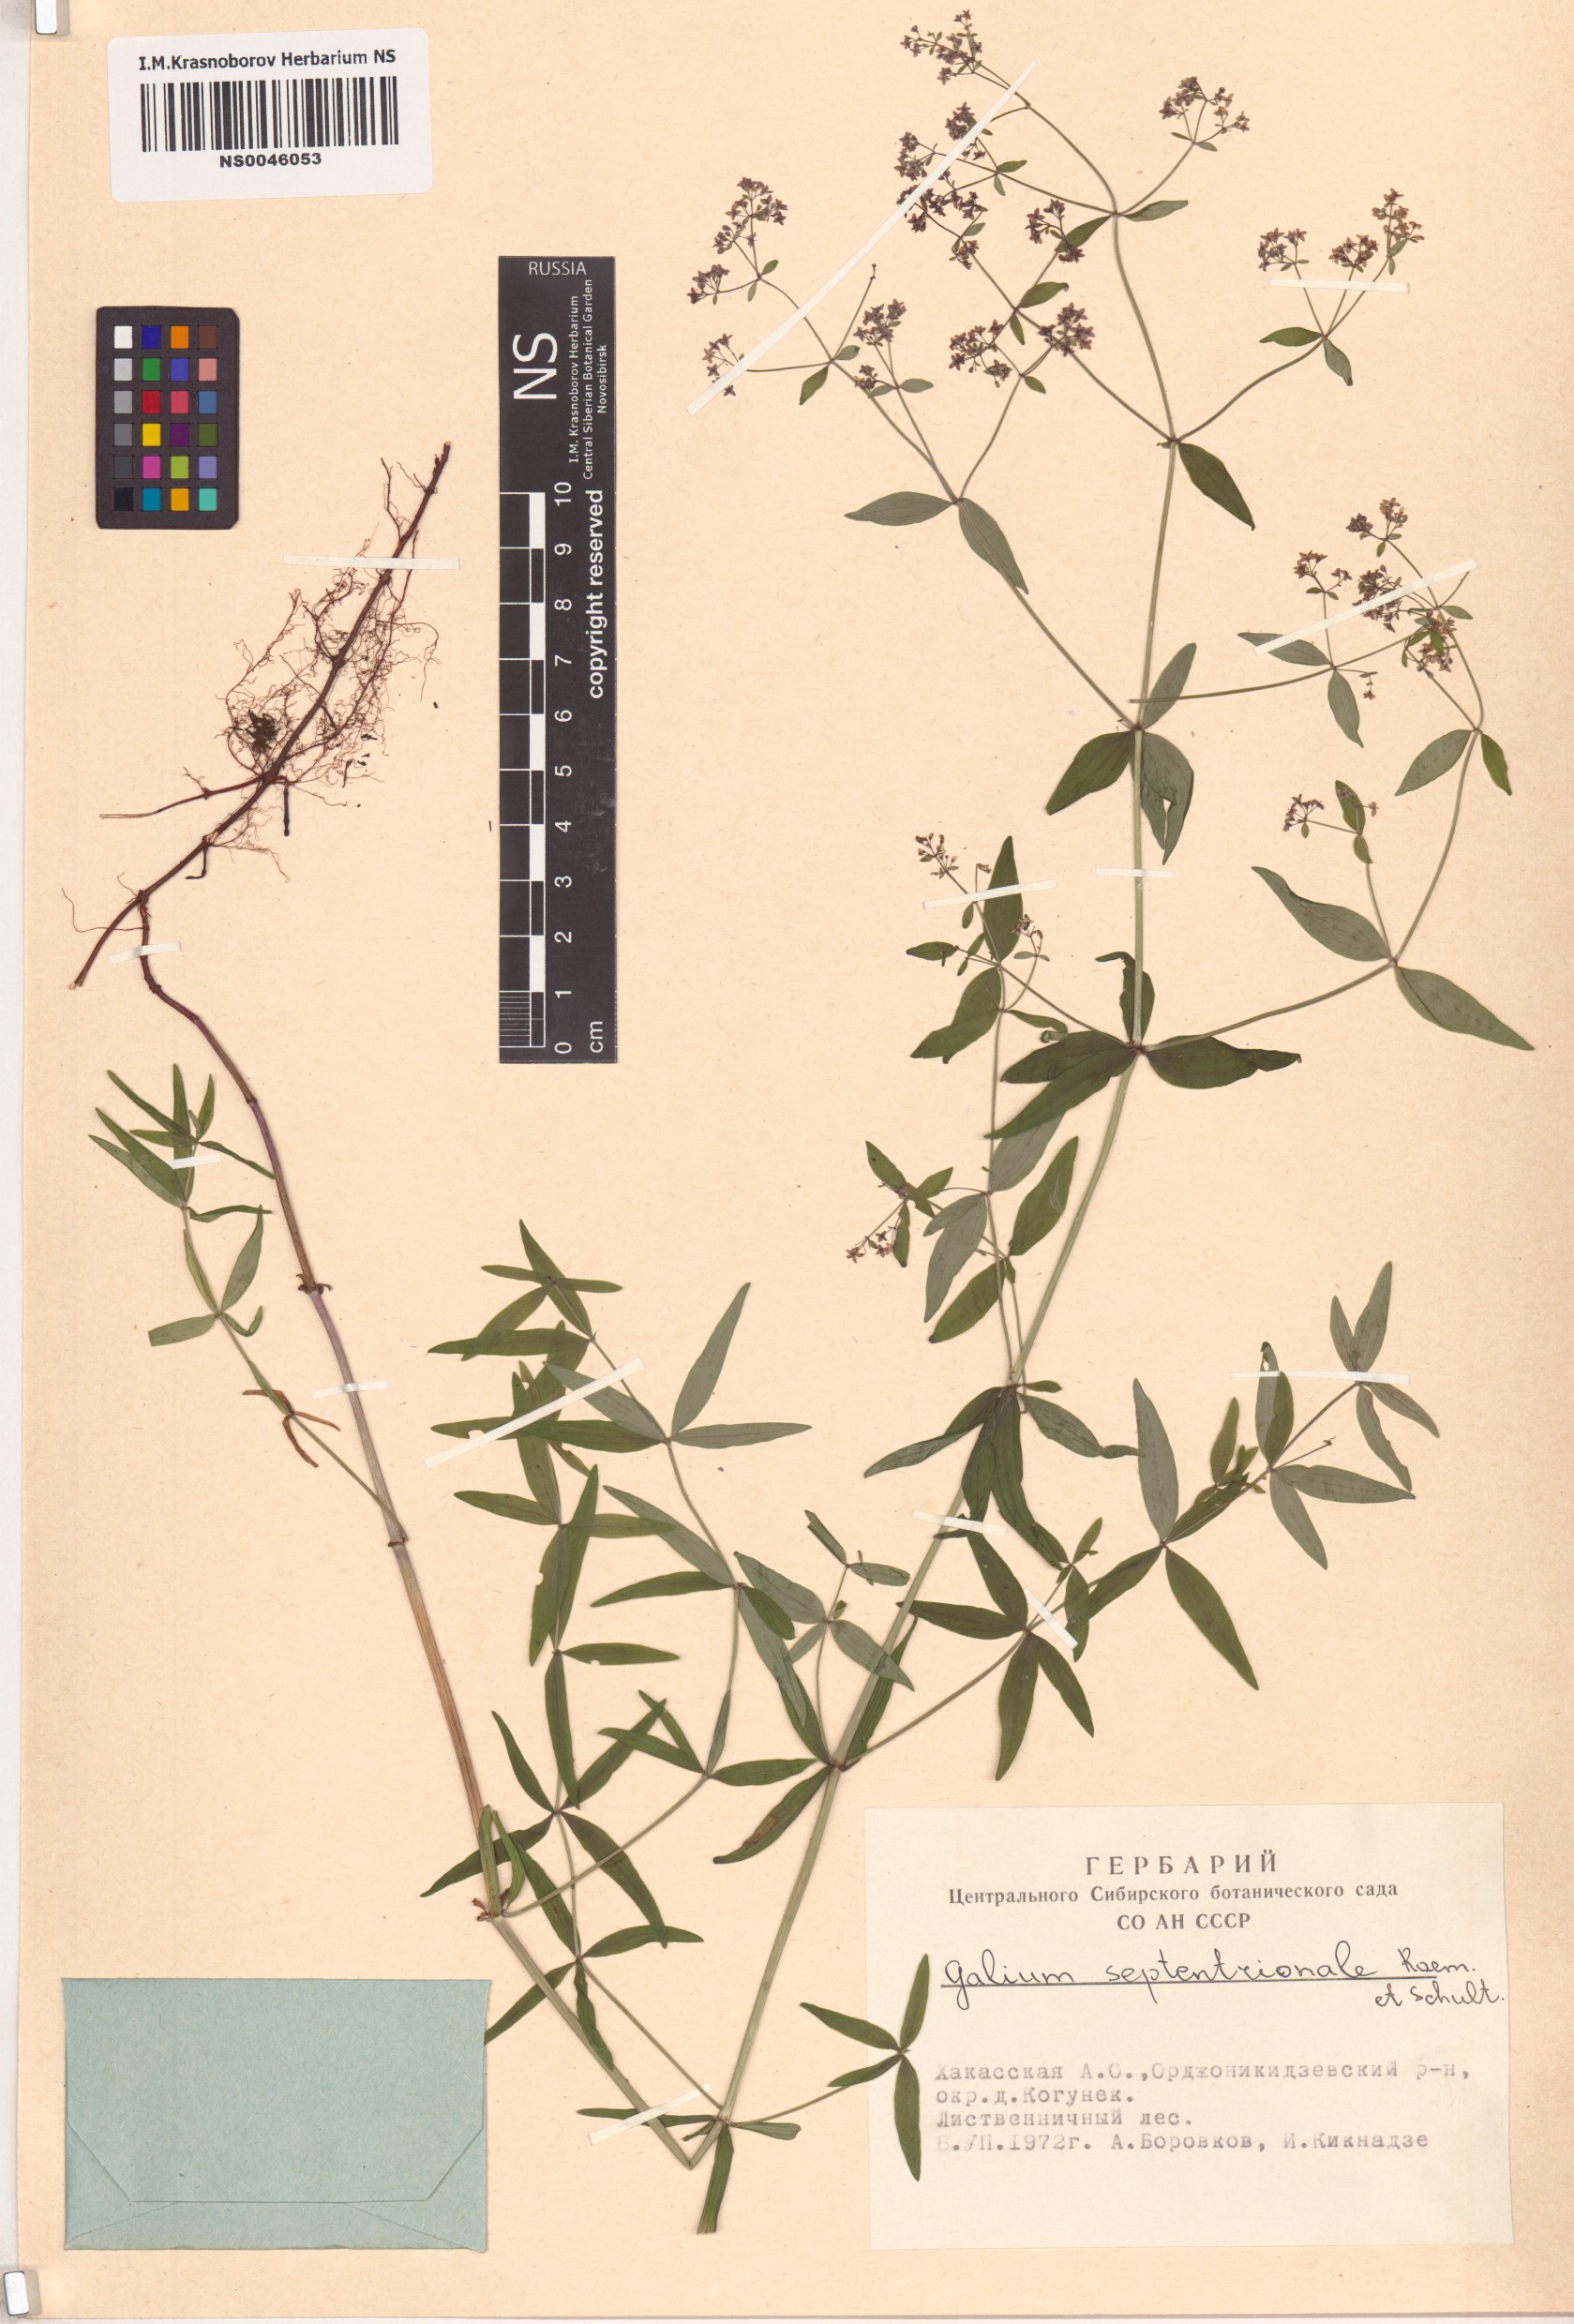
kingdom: Plantae
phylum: Tracheophyta
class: Magnoliopsida
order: Gentianales
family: Rubiaceae
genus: Galium
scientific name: Galium boreale
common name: Northern bedstraw
